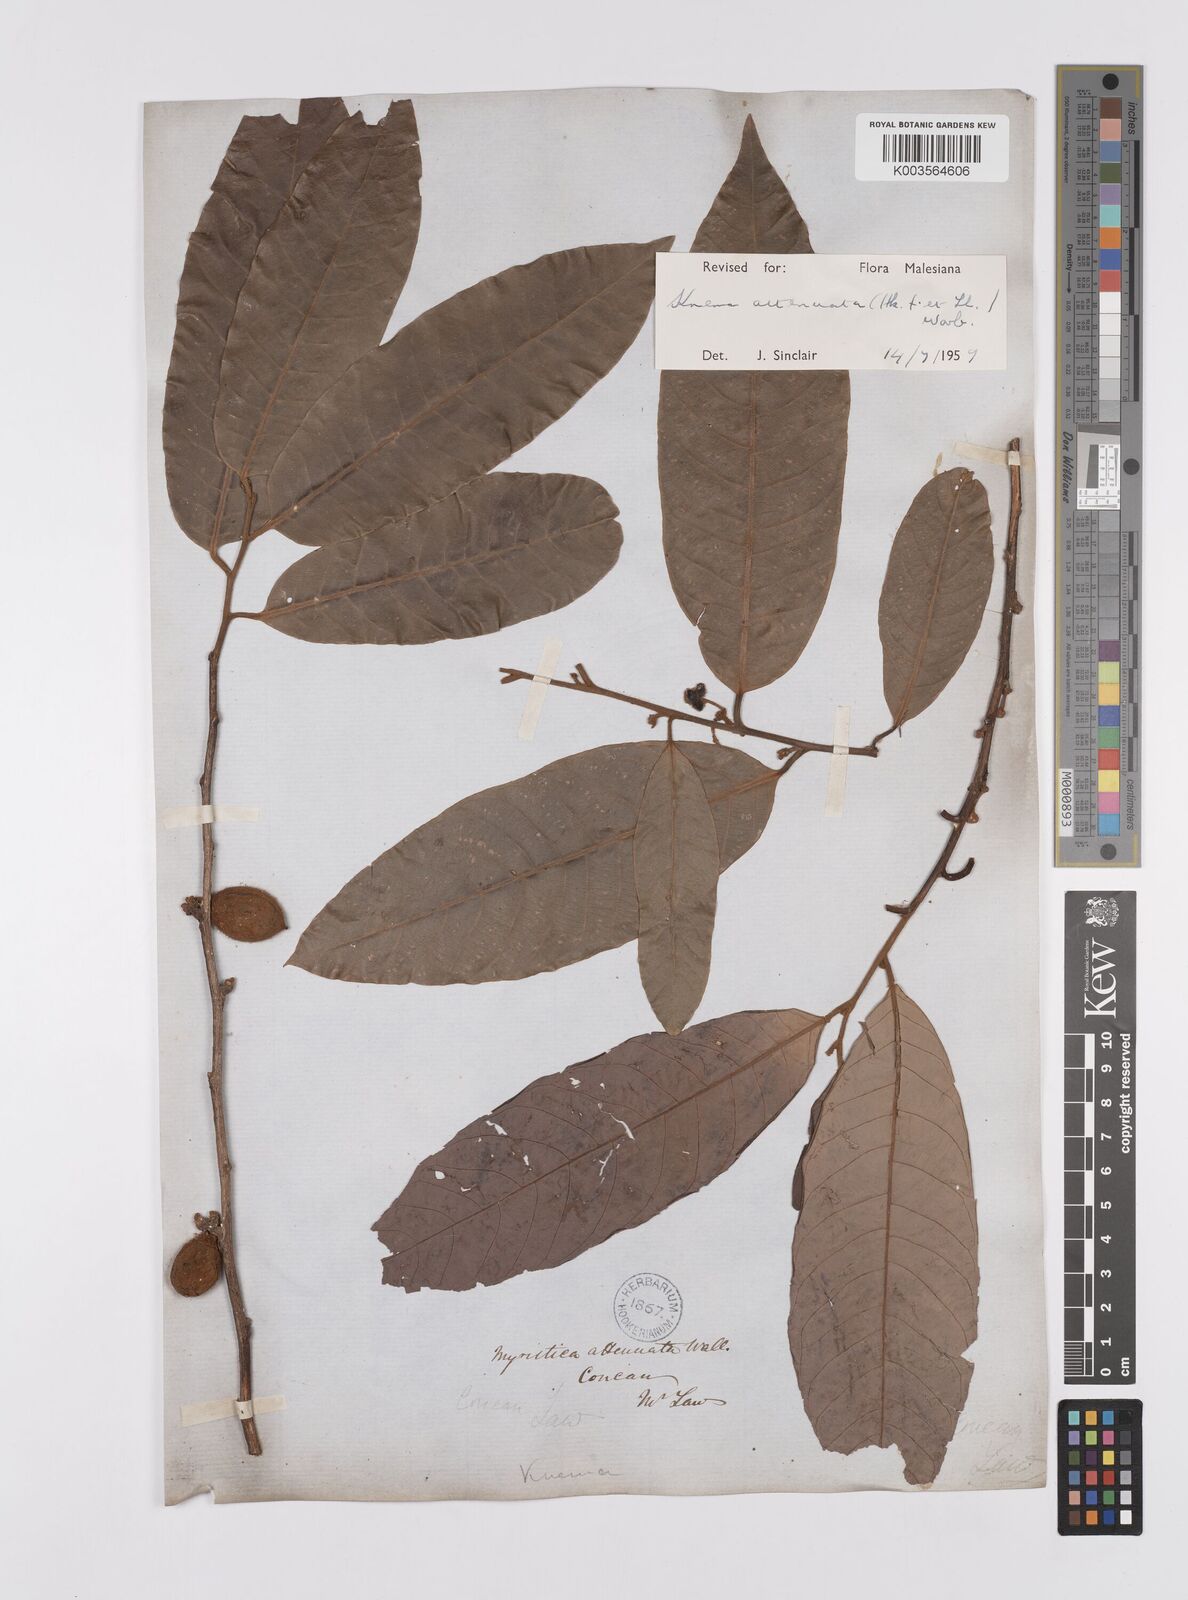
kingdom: Plantae
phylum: Tracheophyta
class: Magnoliopsida
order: Magnoliales
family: Myristicaceae
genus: Knema
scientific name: Knema attenuata
